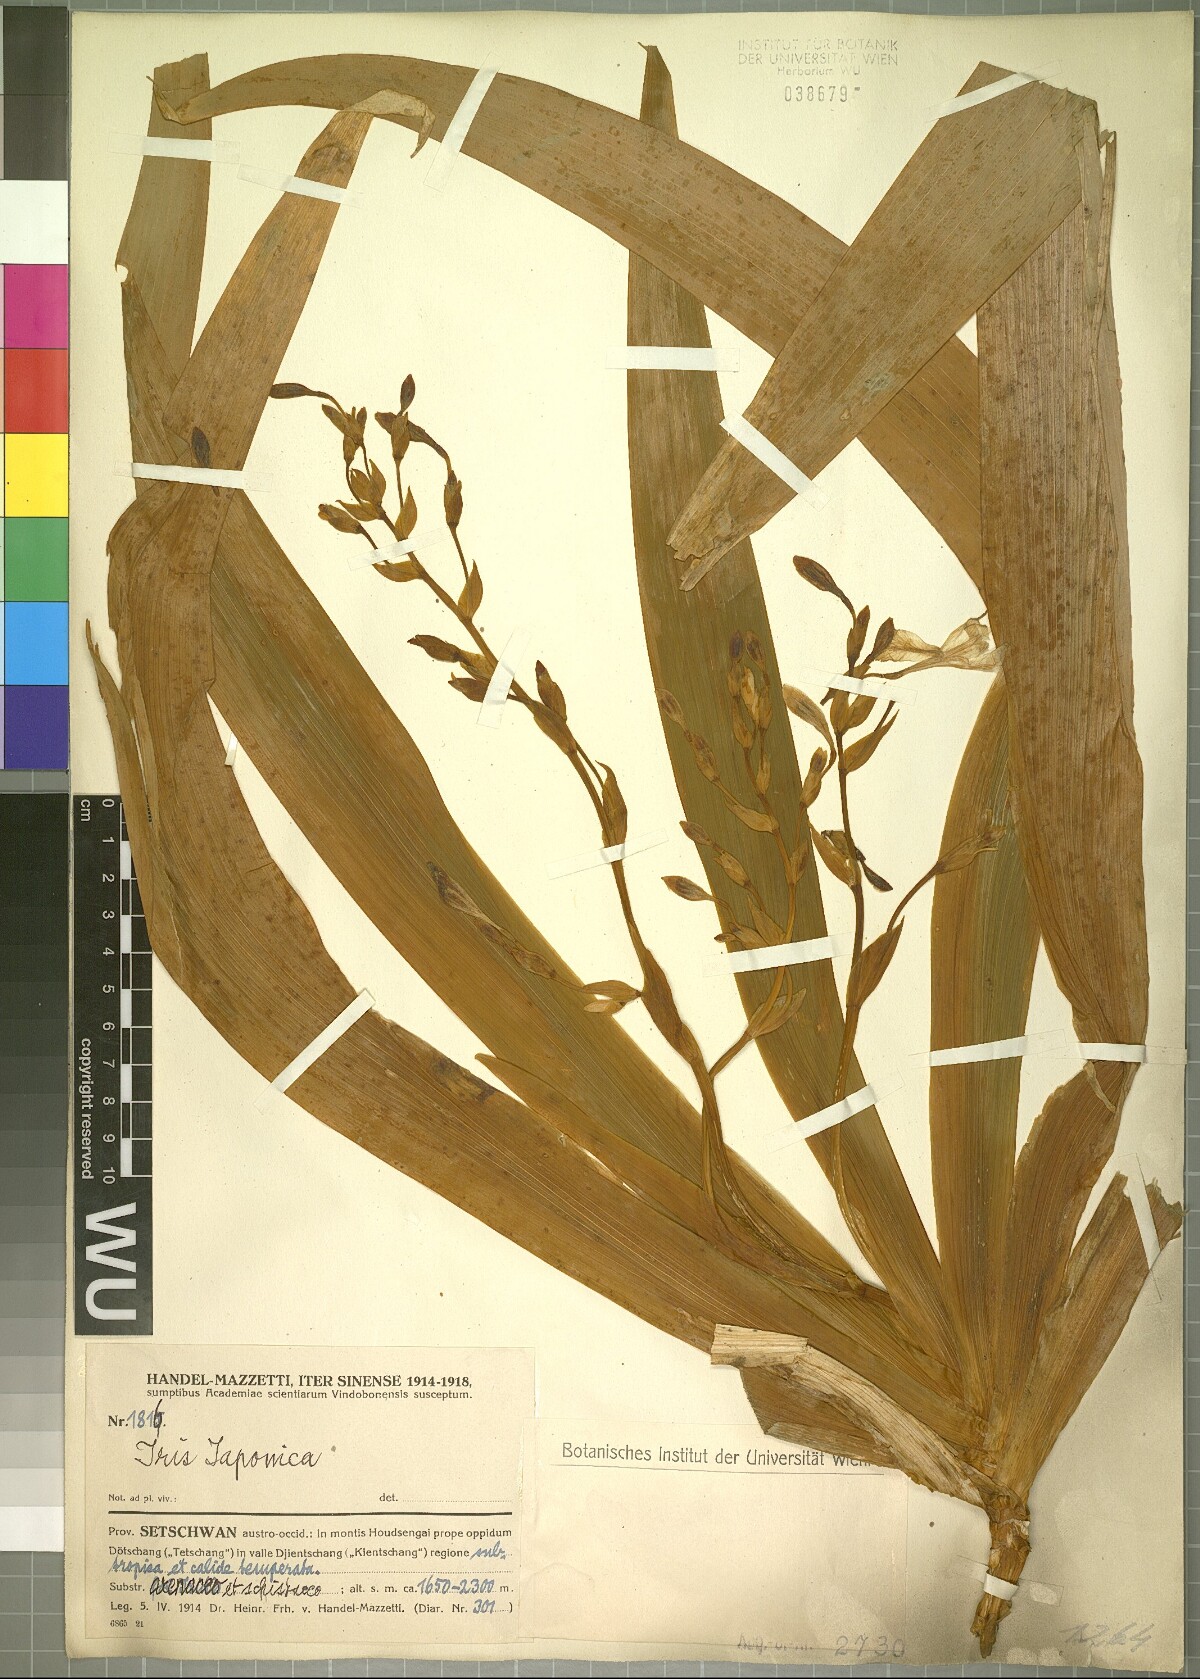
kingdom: Plantae
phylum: Tracheophyta
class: Liliopsida
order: Asparagales
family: Iridaceae
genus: Iris
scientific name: Iris japonica
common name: Butterfly-flower
